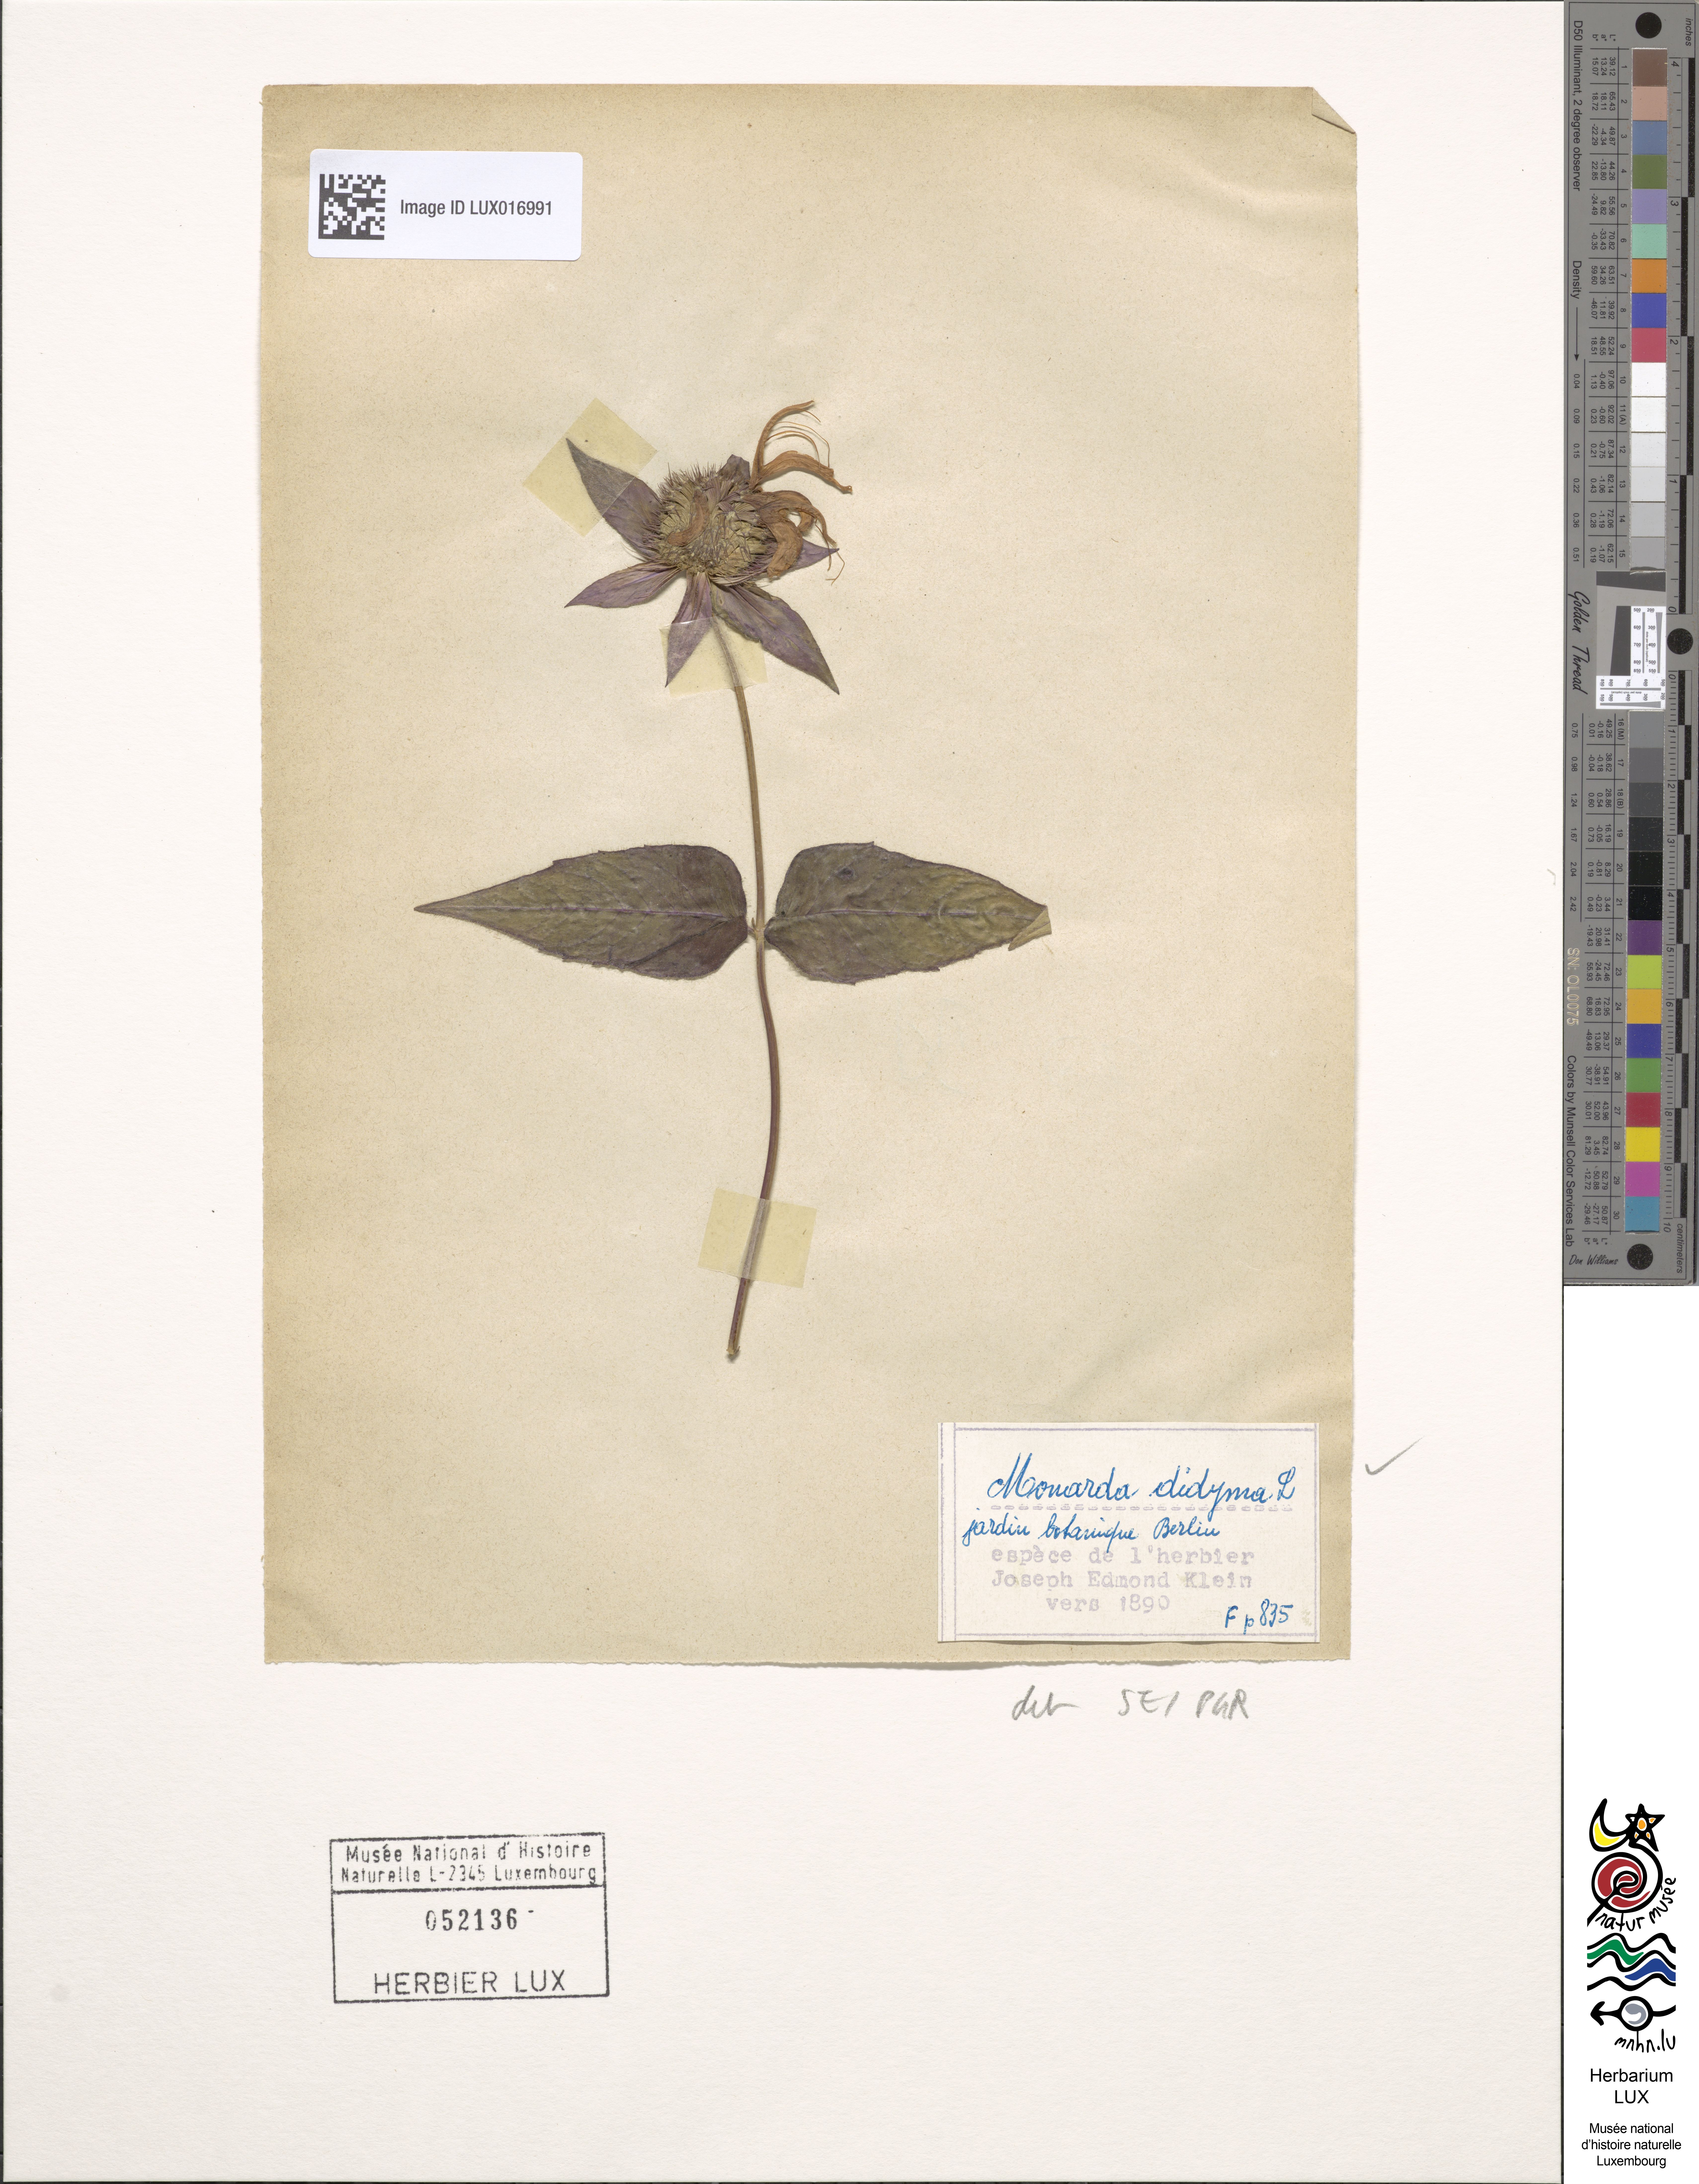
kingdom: Plantae
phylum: Tracheophyta
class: Magnoliopsida
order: Lamiales
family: Lamiaceae
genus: Monarda
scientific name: Monarda didyma
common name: Beebalm
